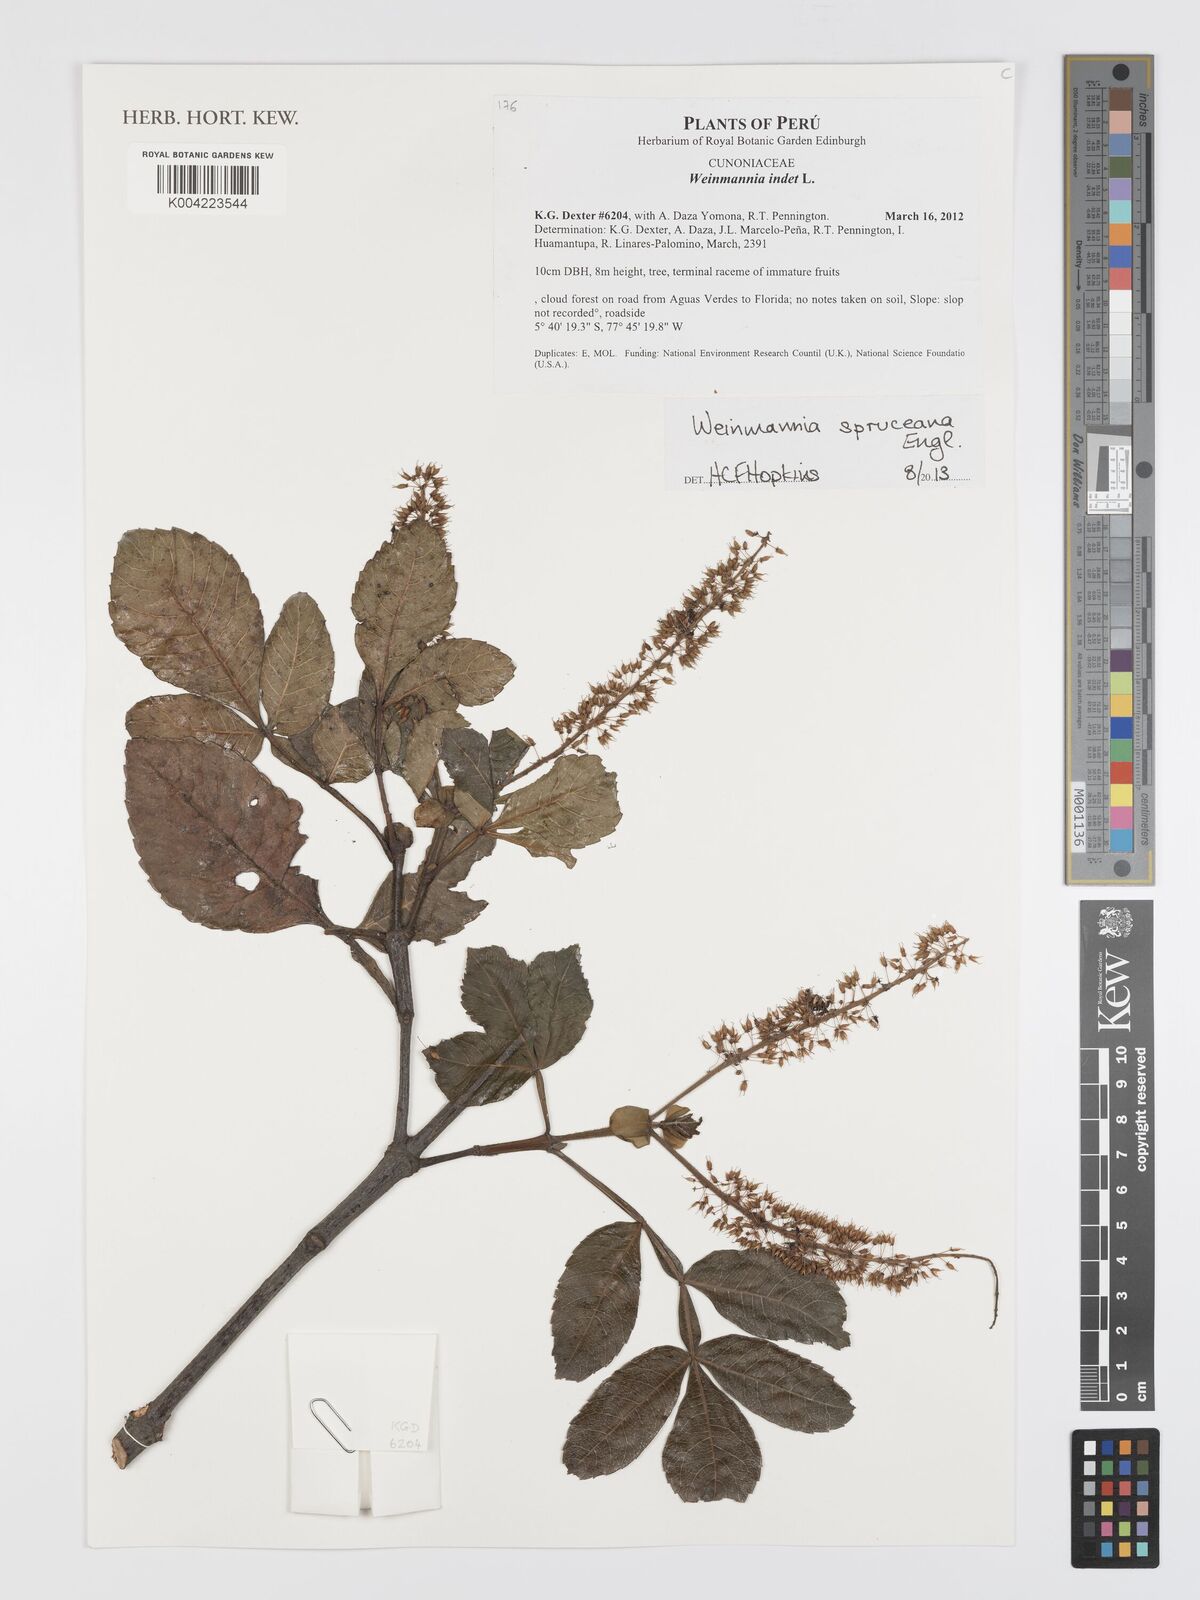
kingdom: Plantae
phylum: Tracheophyta
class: Magnoliopsida
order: Oxalidales
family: Cunoniaceae
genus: Weinmannia
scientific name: Weinmannia spruceana
